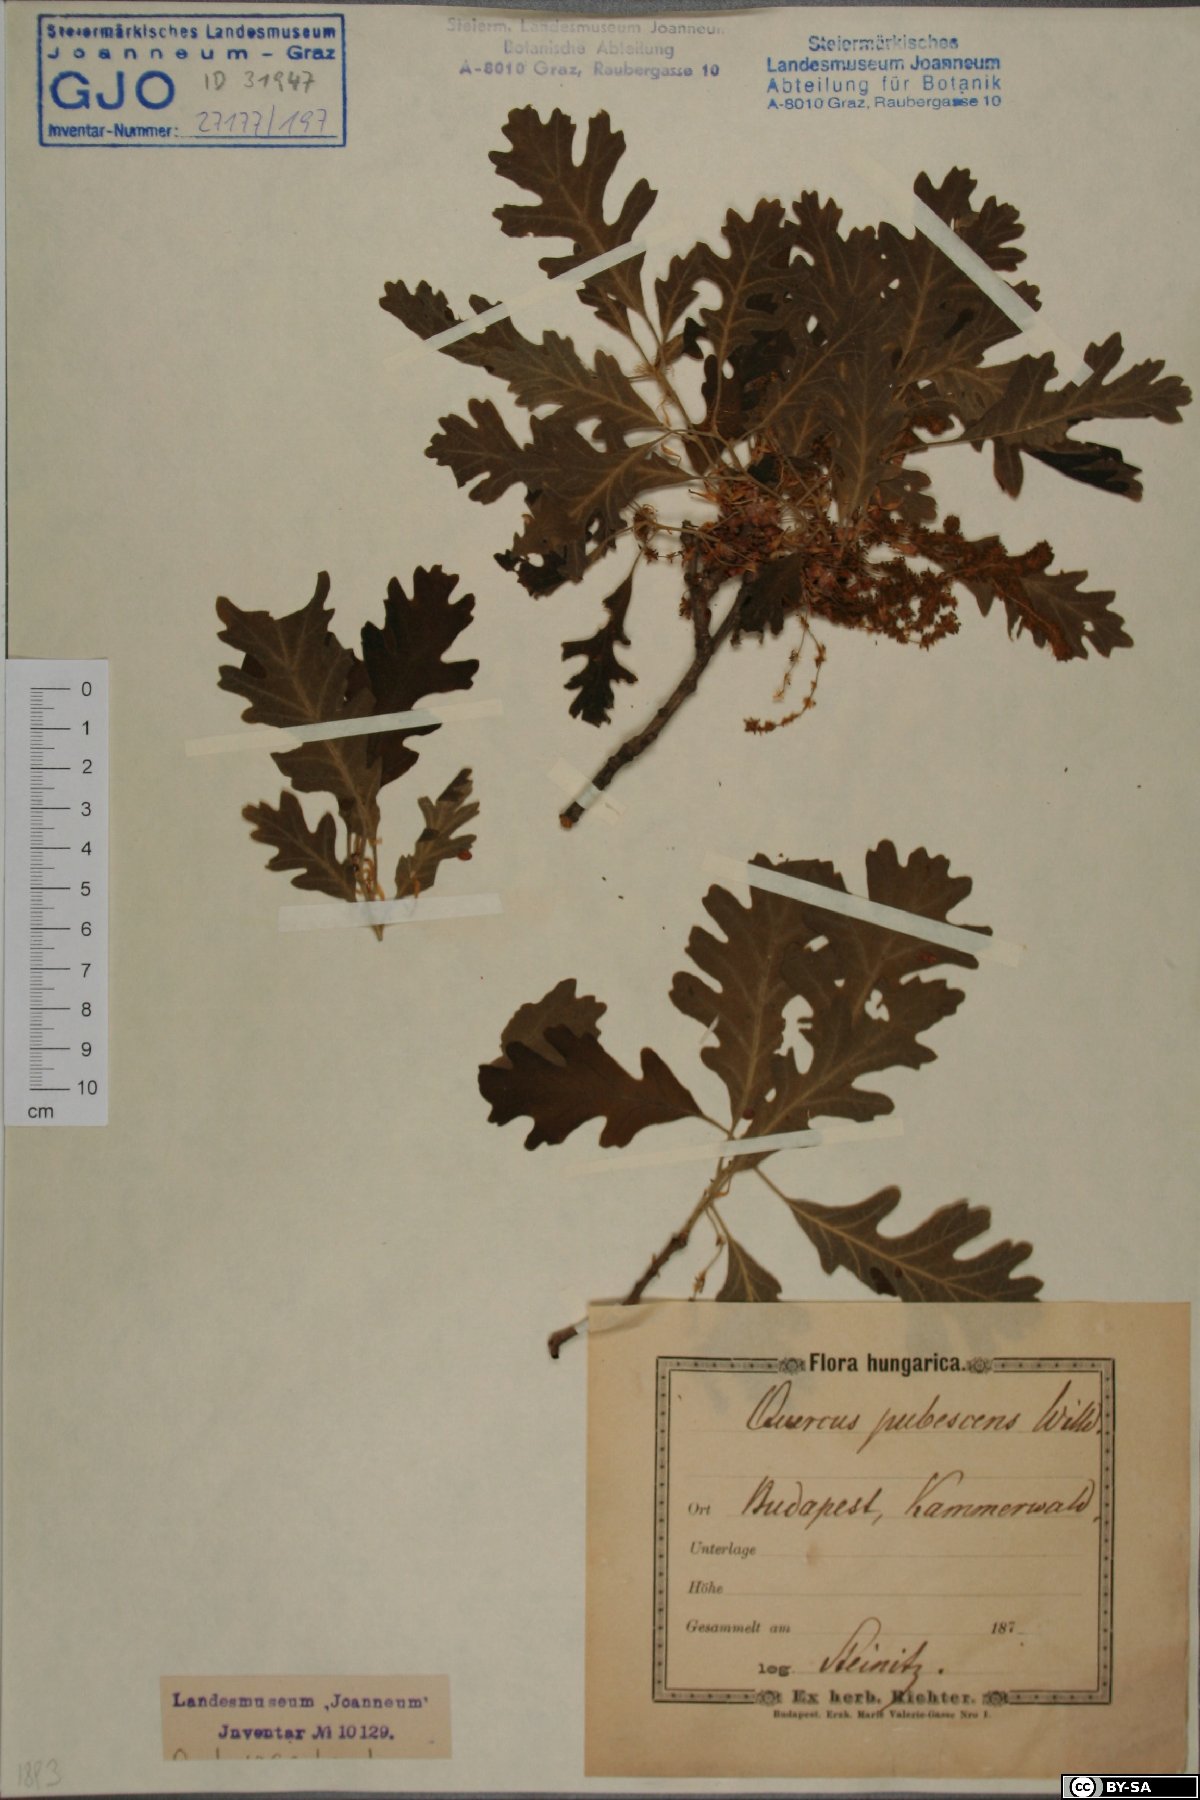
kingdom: Plantae
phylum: Tracheophyta
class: Magnoliopsida
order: Fagales
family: Fagaceae
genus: Quercus
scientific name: Quercus pubescens
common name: Downy oak
